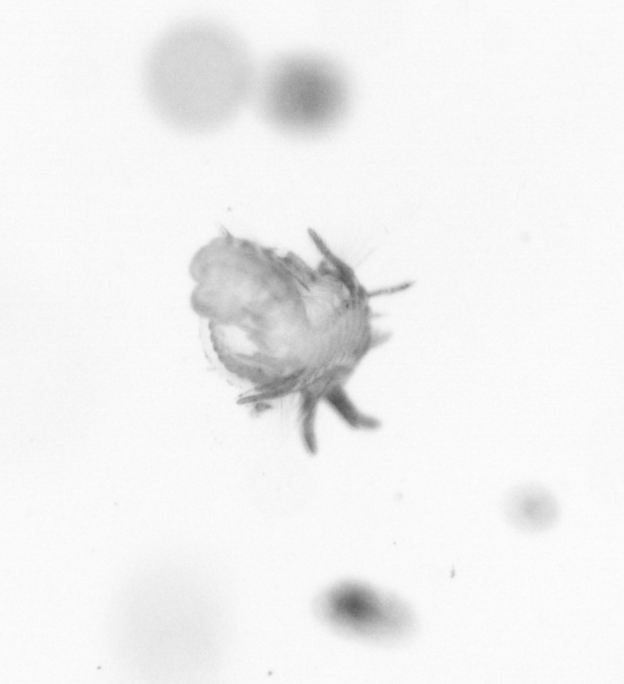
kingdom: Animalia
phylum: Annelida
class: Polychaeta
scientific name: Polychaeta
